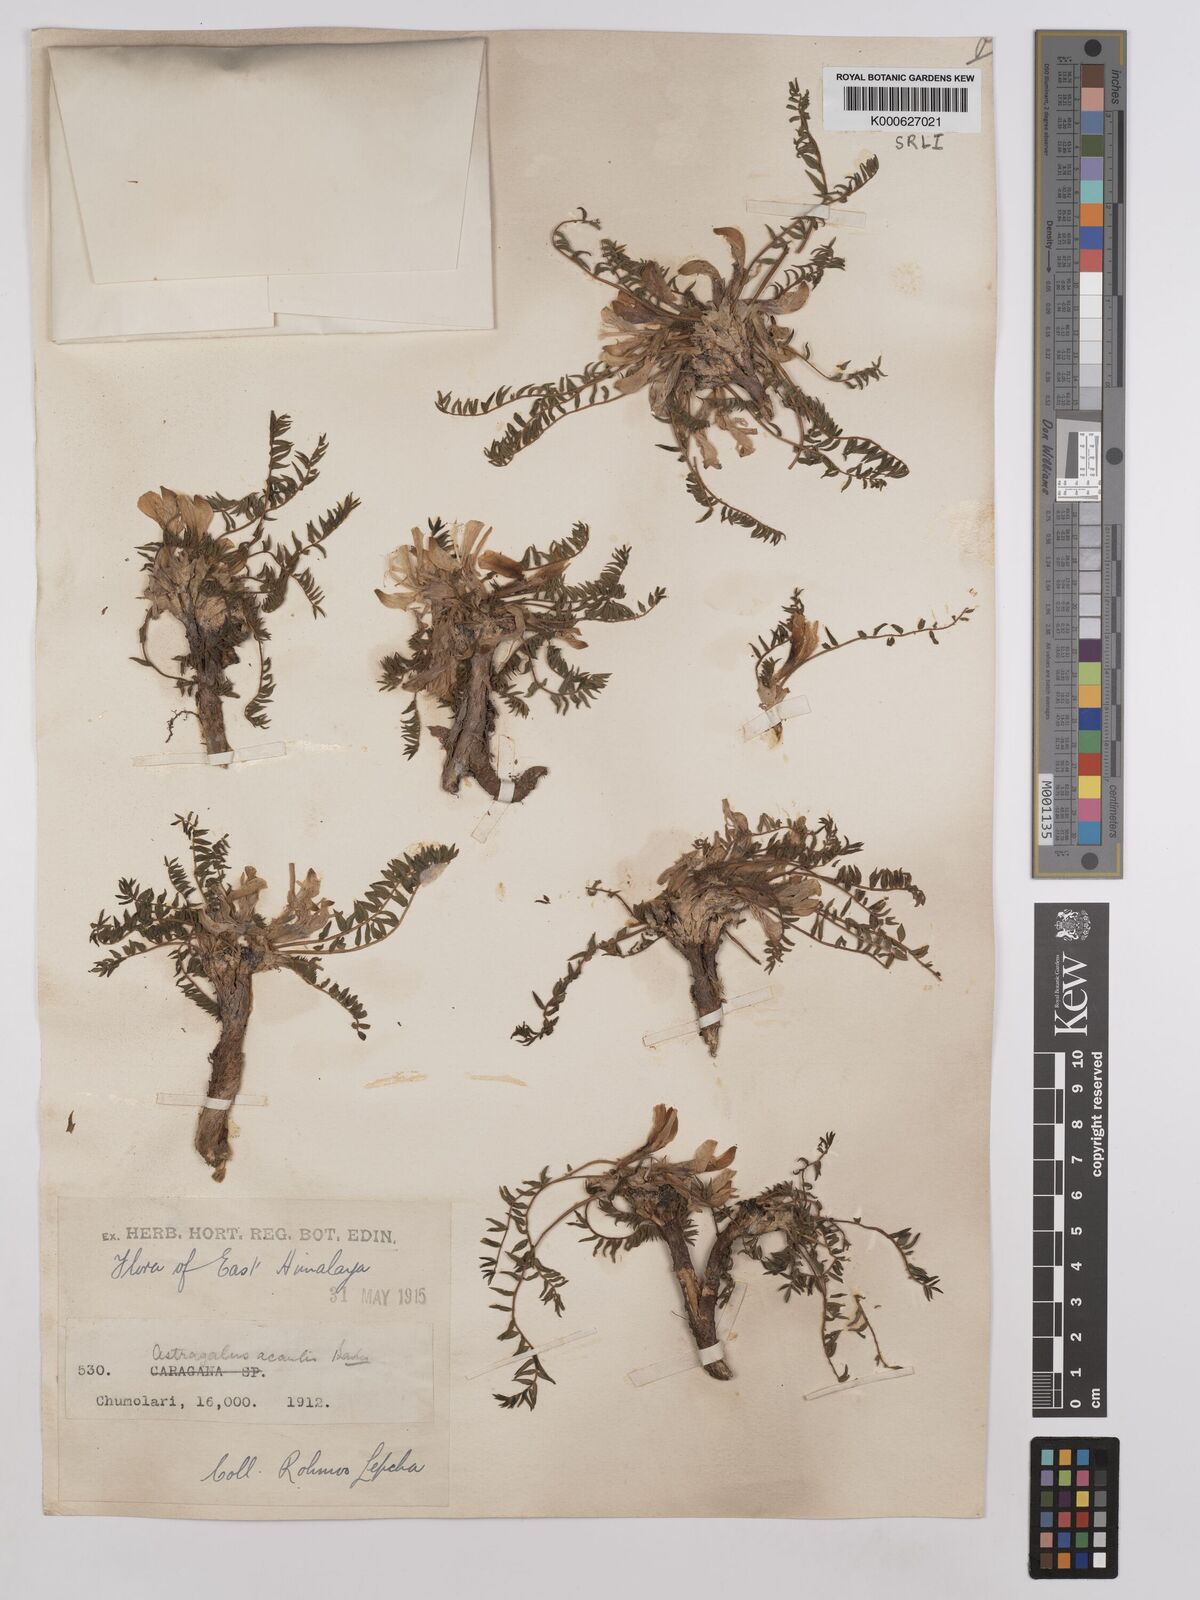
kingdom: Plantae
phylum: Tracheophyta
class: Magnoliopsida
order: Fabales
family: Fabaceae
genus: Astragalus
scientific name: Astragalus acaulis
